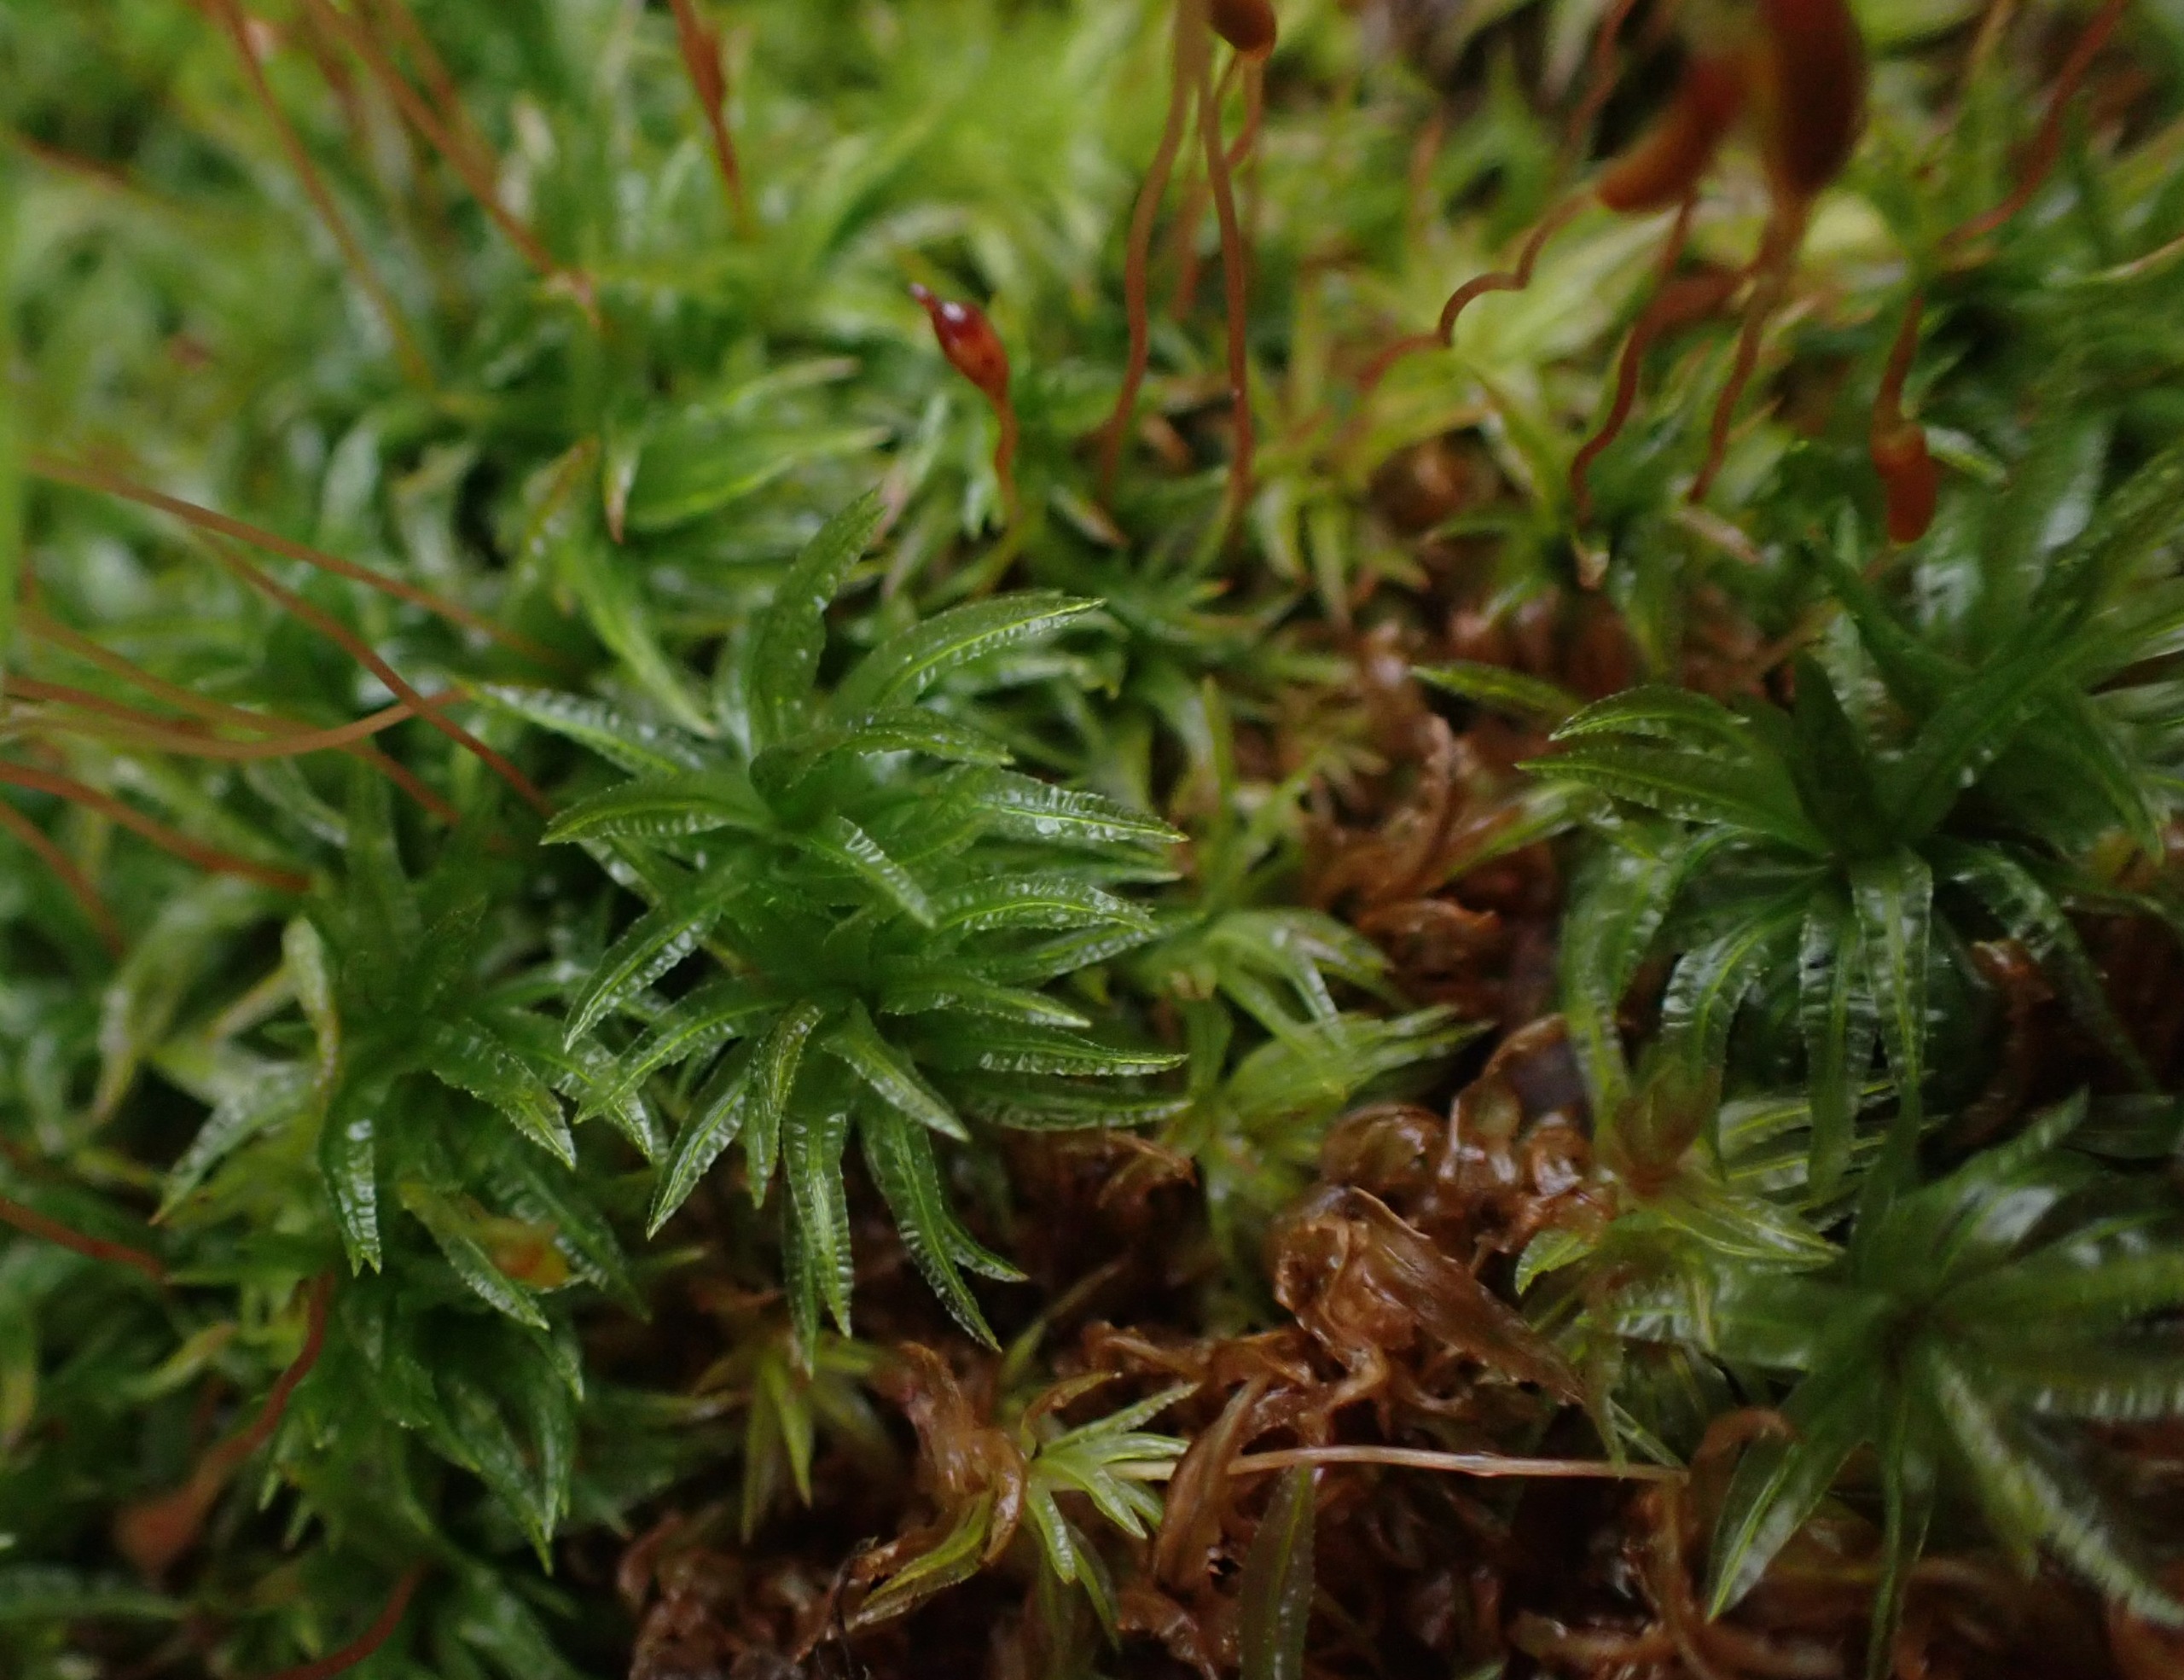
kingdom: Plantae
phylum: Bryophyta
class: Polytrichopsida
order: Polytrichales
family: Polytrichaceae
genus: Atrichum
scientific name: Atrichum undulatum
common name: Bølget katrinemos
